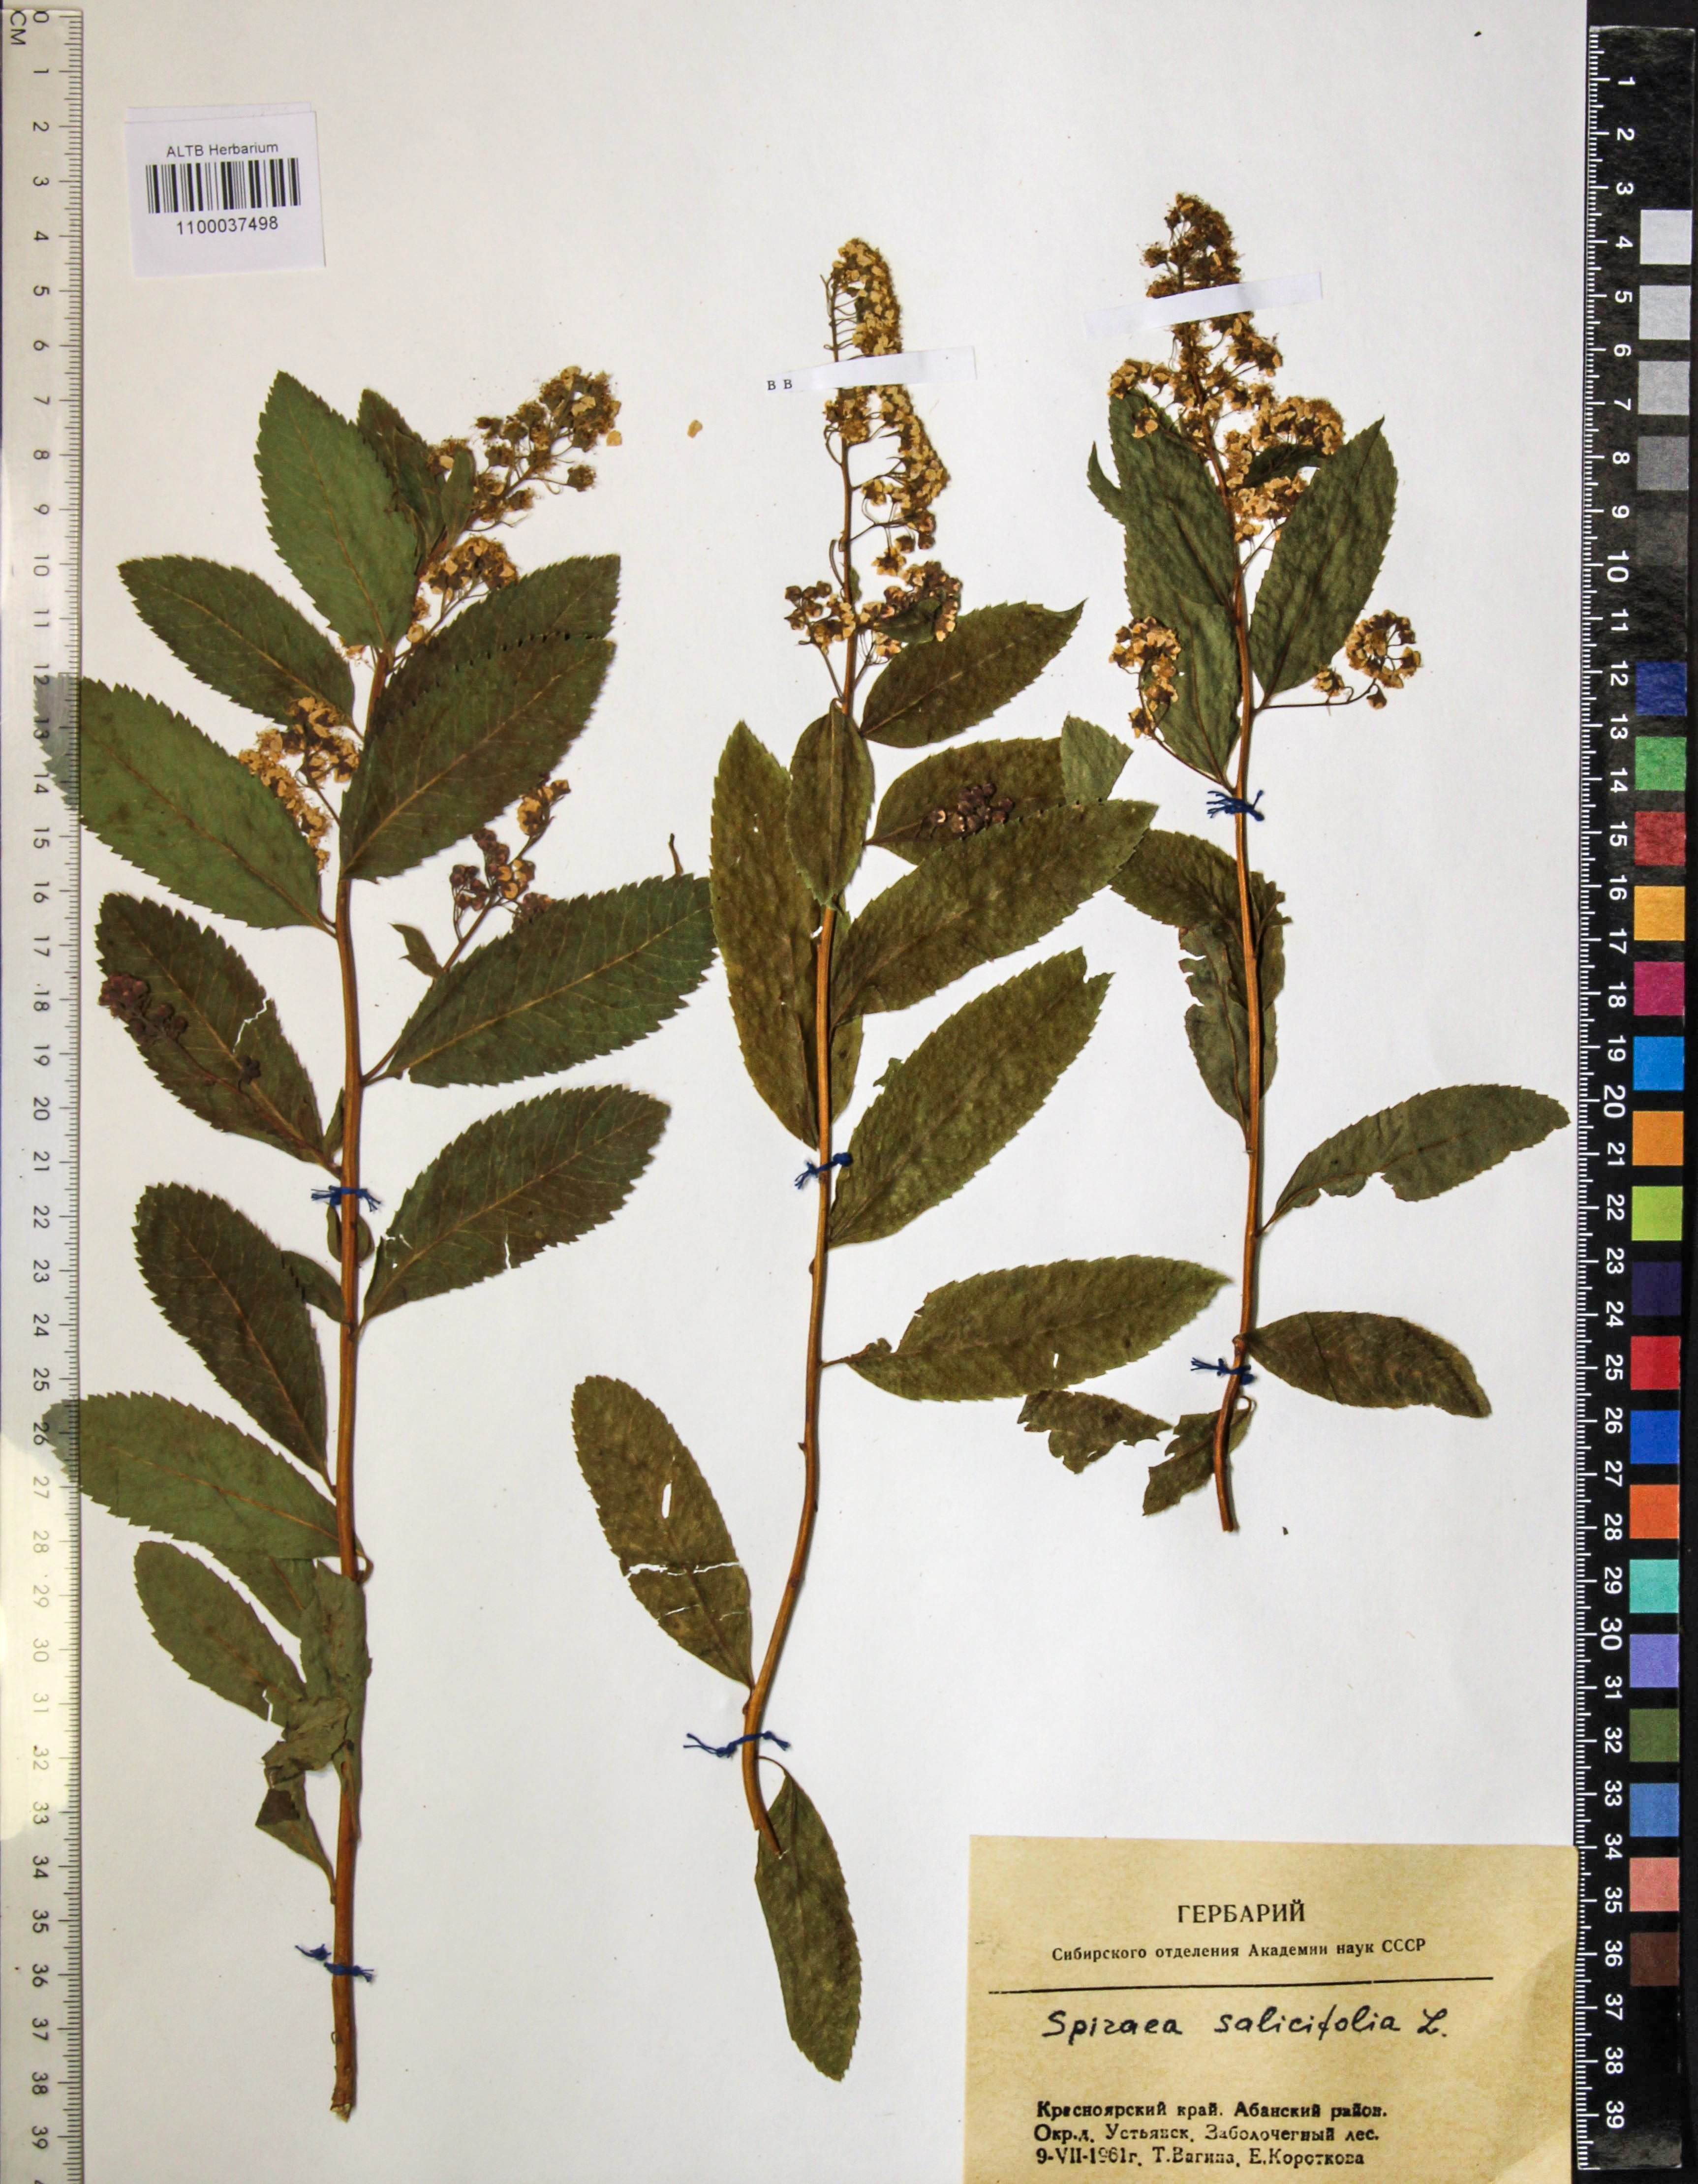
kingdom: Plantae
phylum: Tracheophyta
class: Magnoliopsida
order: Rosales
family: Rosaceae
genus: Spiraea
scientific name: Spiraea salicifolia
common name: Bridewort
